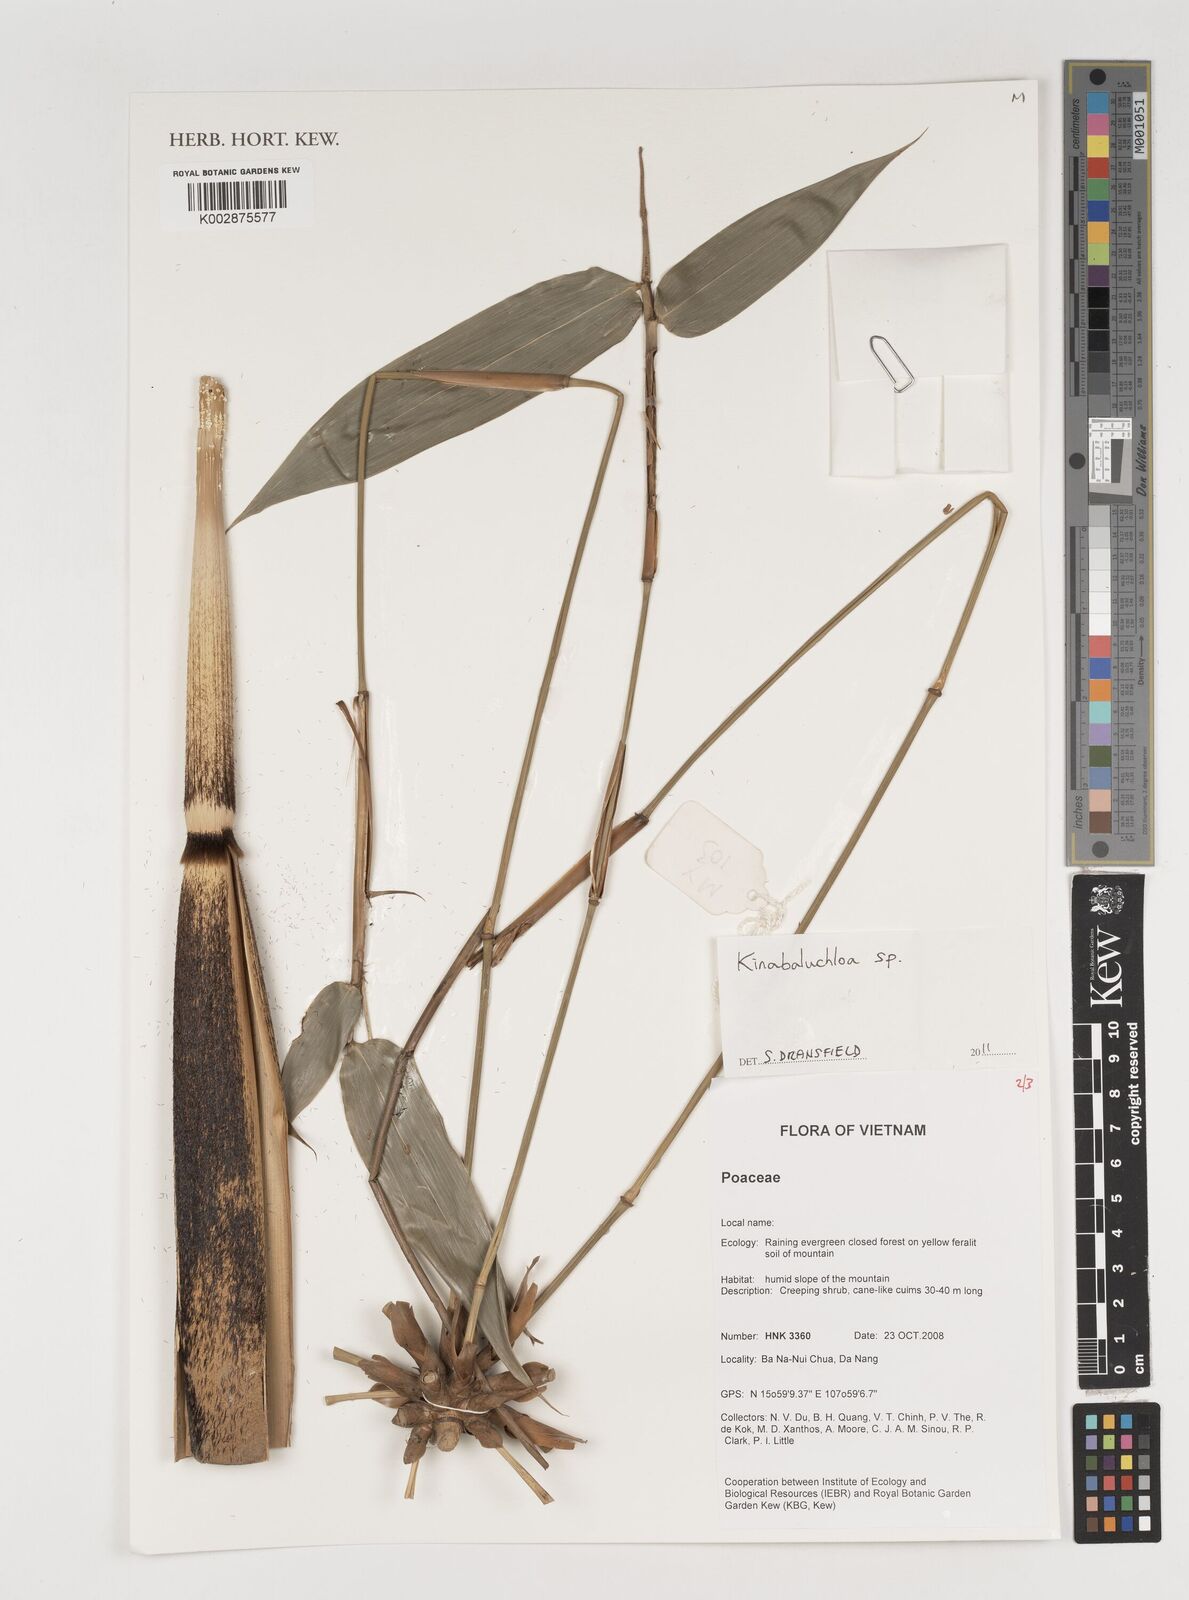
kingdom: Plantae
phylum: Tracheophyta
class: Liliopsida
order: Poales
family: Poaceae
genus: Kinabaluchloa
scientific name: Kinabaluchloa
